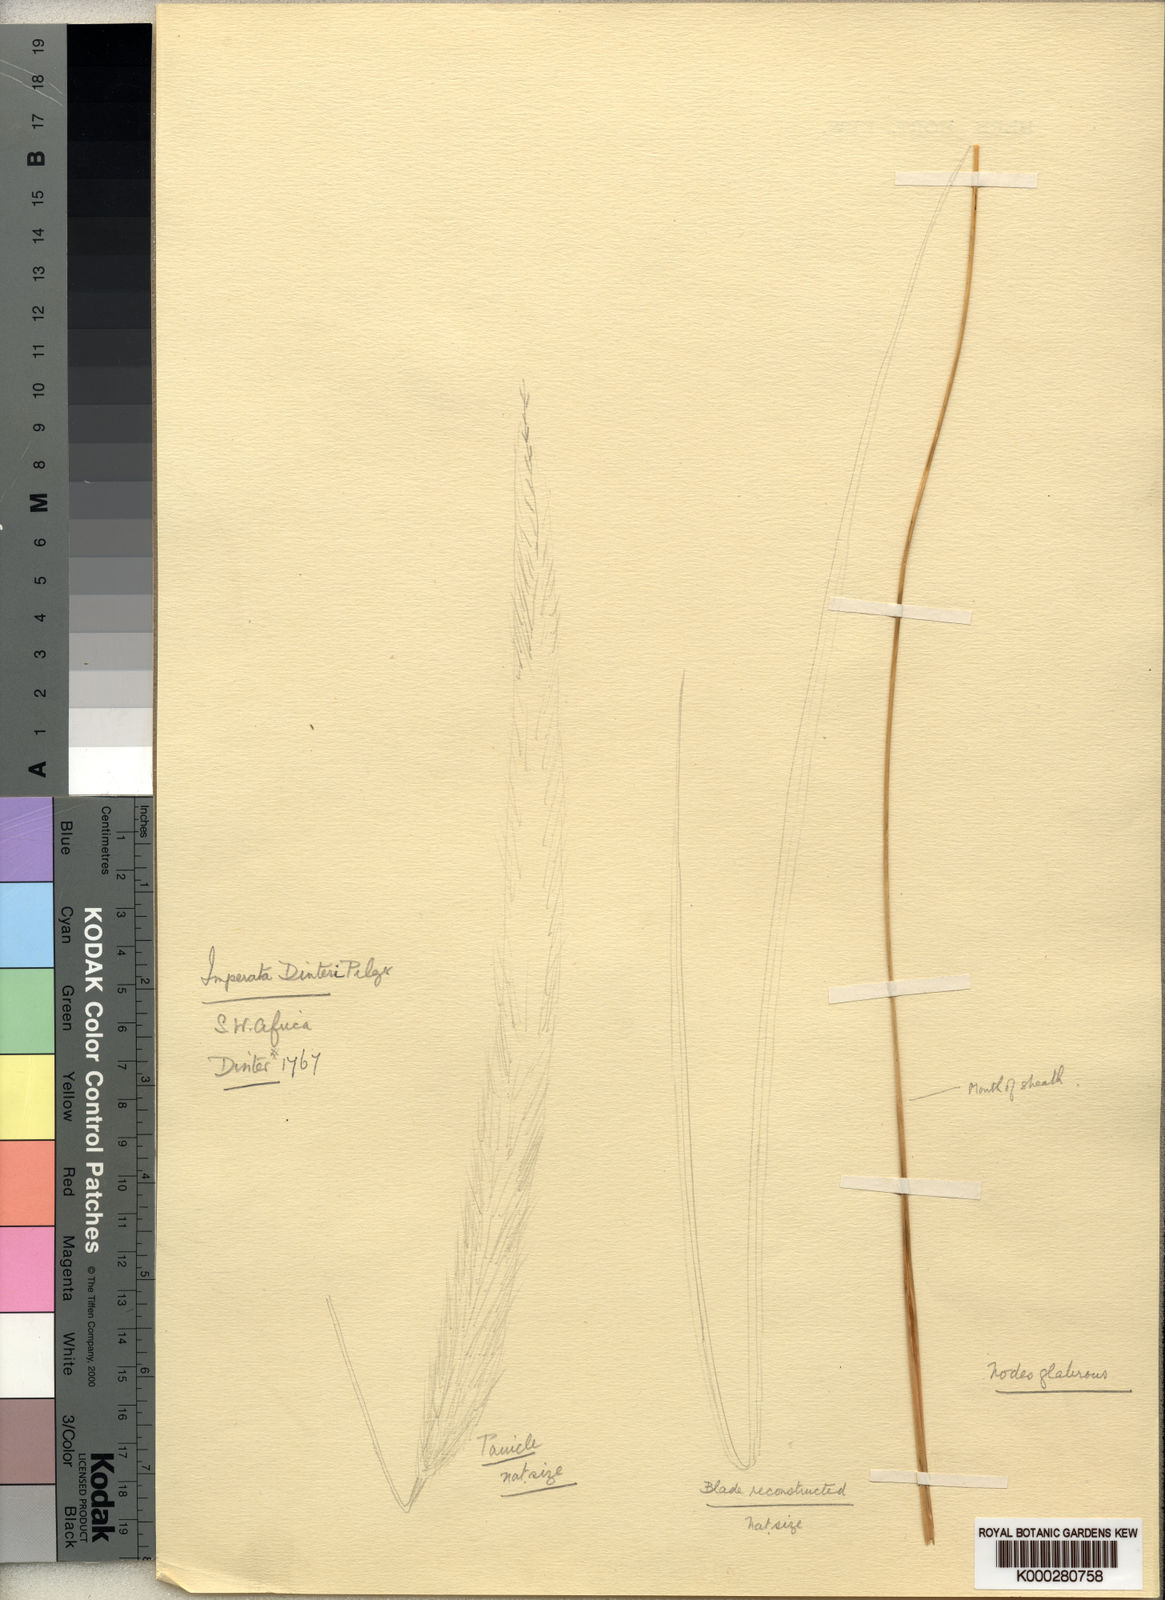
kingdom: Plantae
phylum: Tracheophyta
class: Liliopsida
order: Poales
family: Poaceae
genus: Imperata
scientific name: Imperata
